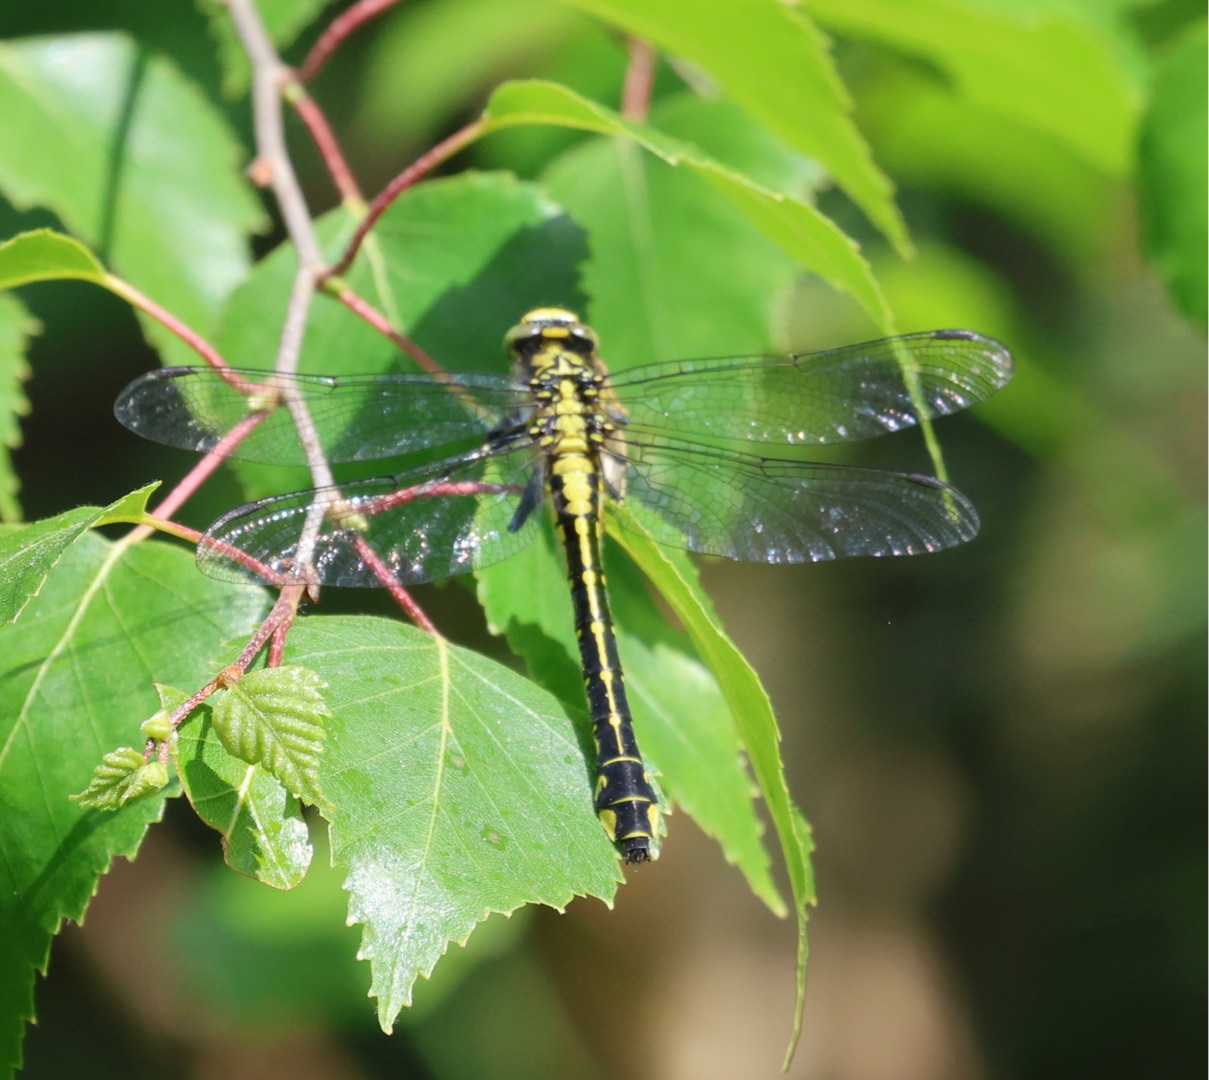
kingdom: Animalia
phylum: Arthropoda
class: Insecta
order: Odonata
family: Gomphidae
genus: Gomphus
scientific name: Gomphus vulgatissimus
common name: Almindelig flodguldsmed
